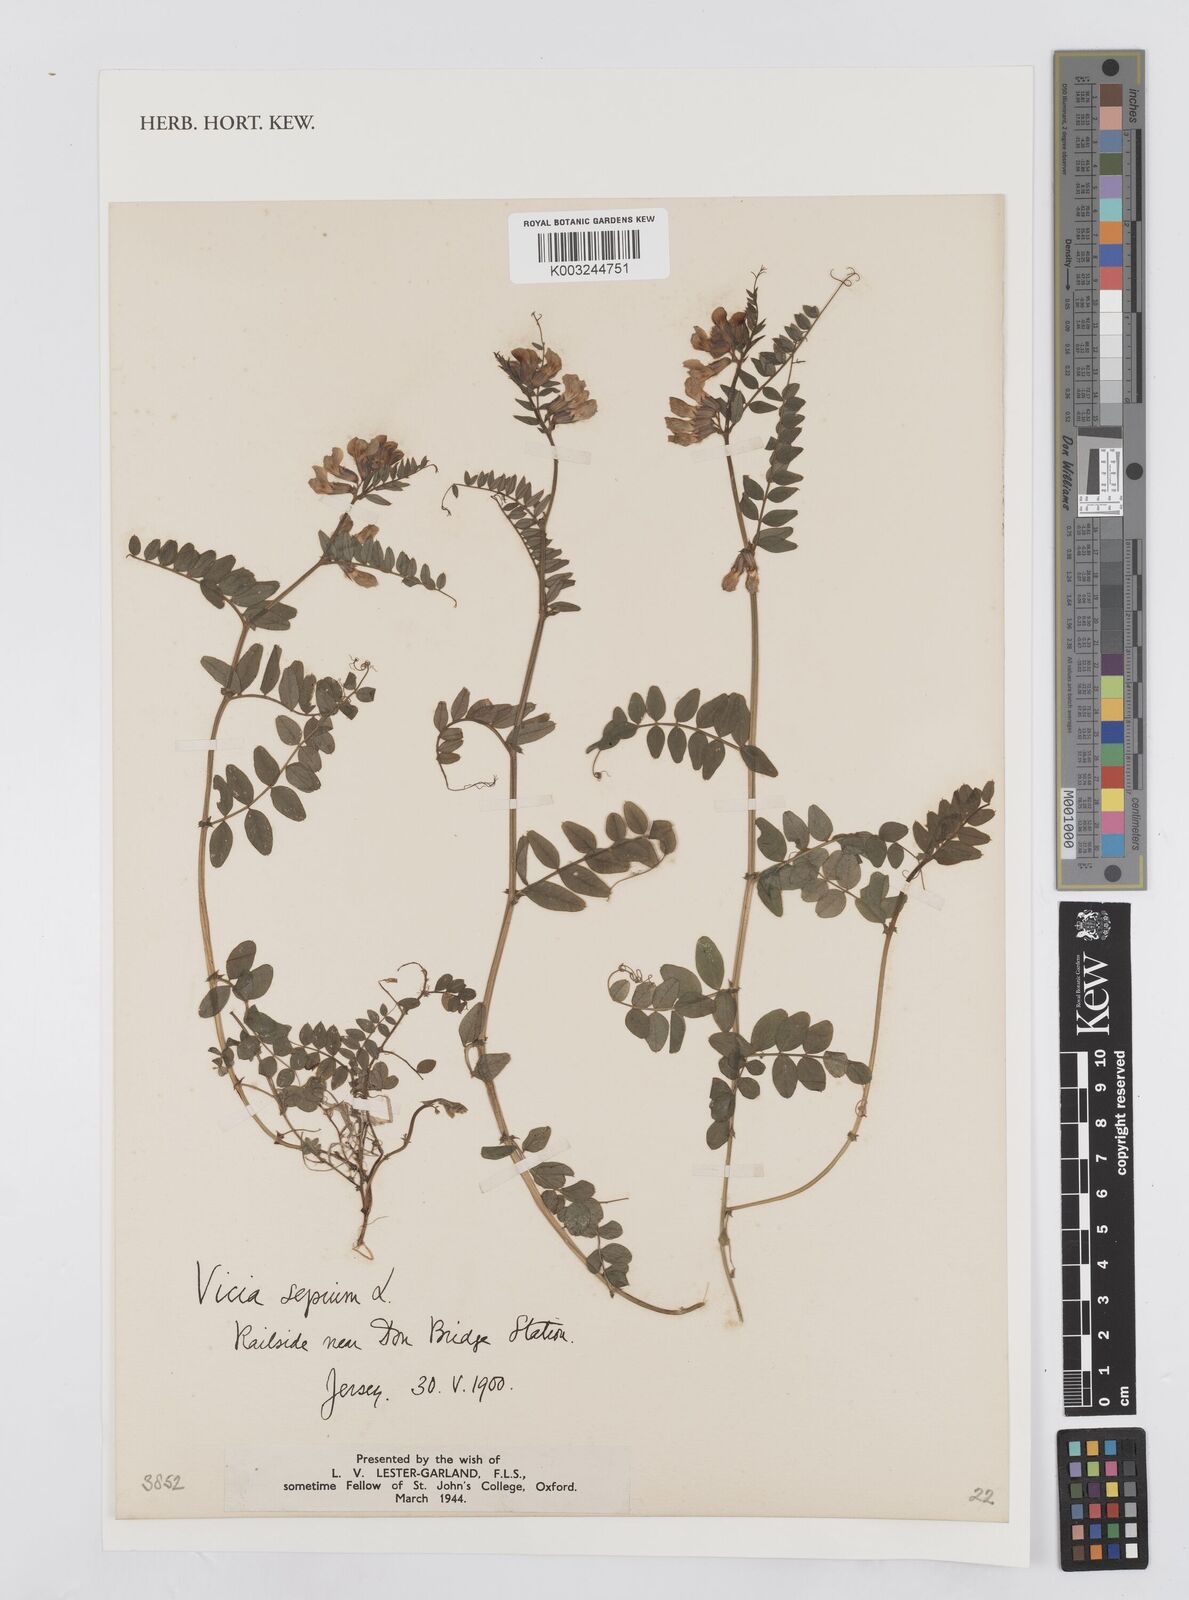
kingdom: Plantae
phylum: Tracheophyta
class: Magnoliopsida
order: Fabales
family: Fabaceae
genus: Vicia
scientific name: Vicia sepium
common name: Bush vetch
